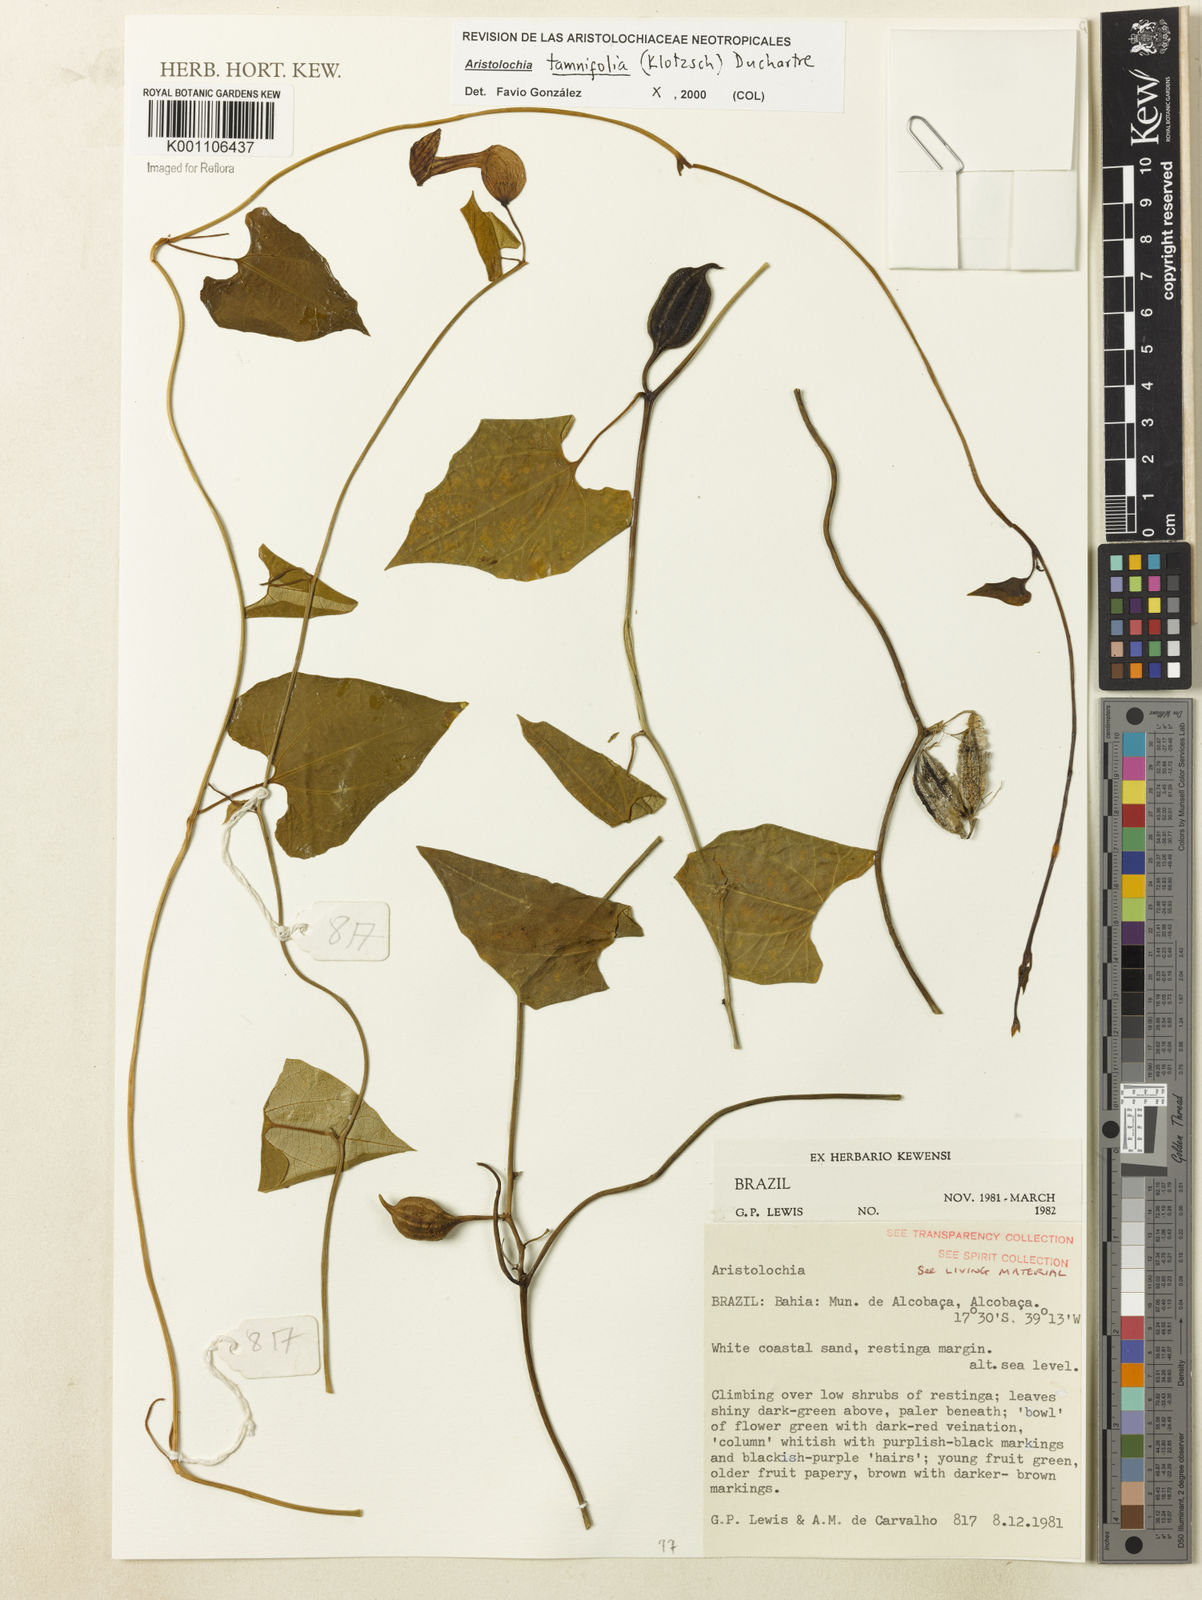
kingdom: Plantae
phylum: Tracheophyta
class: Magnoliopsida
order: Piperales
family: Aristolochiaceae
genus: Aristolochia
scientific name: Aristolochia tamnifolia
